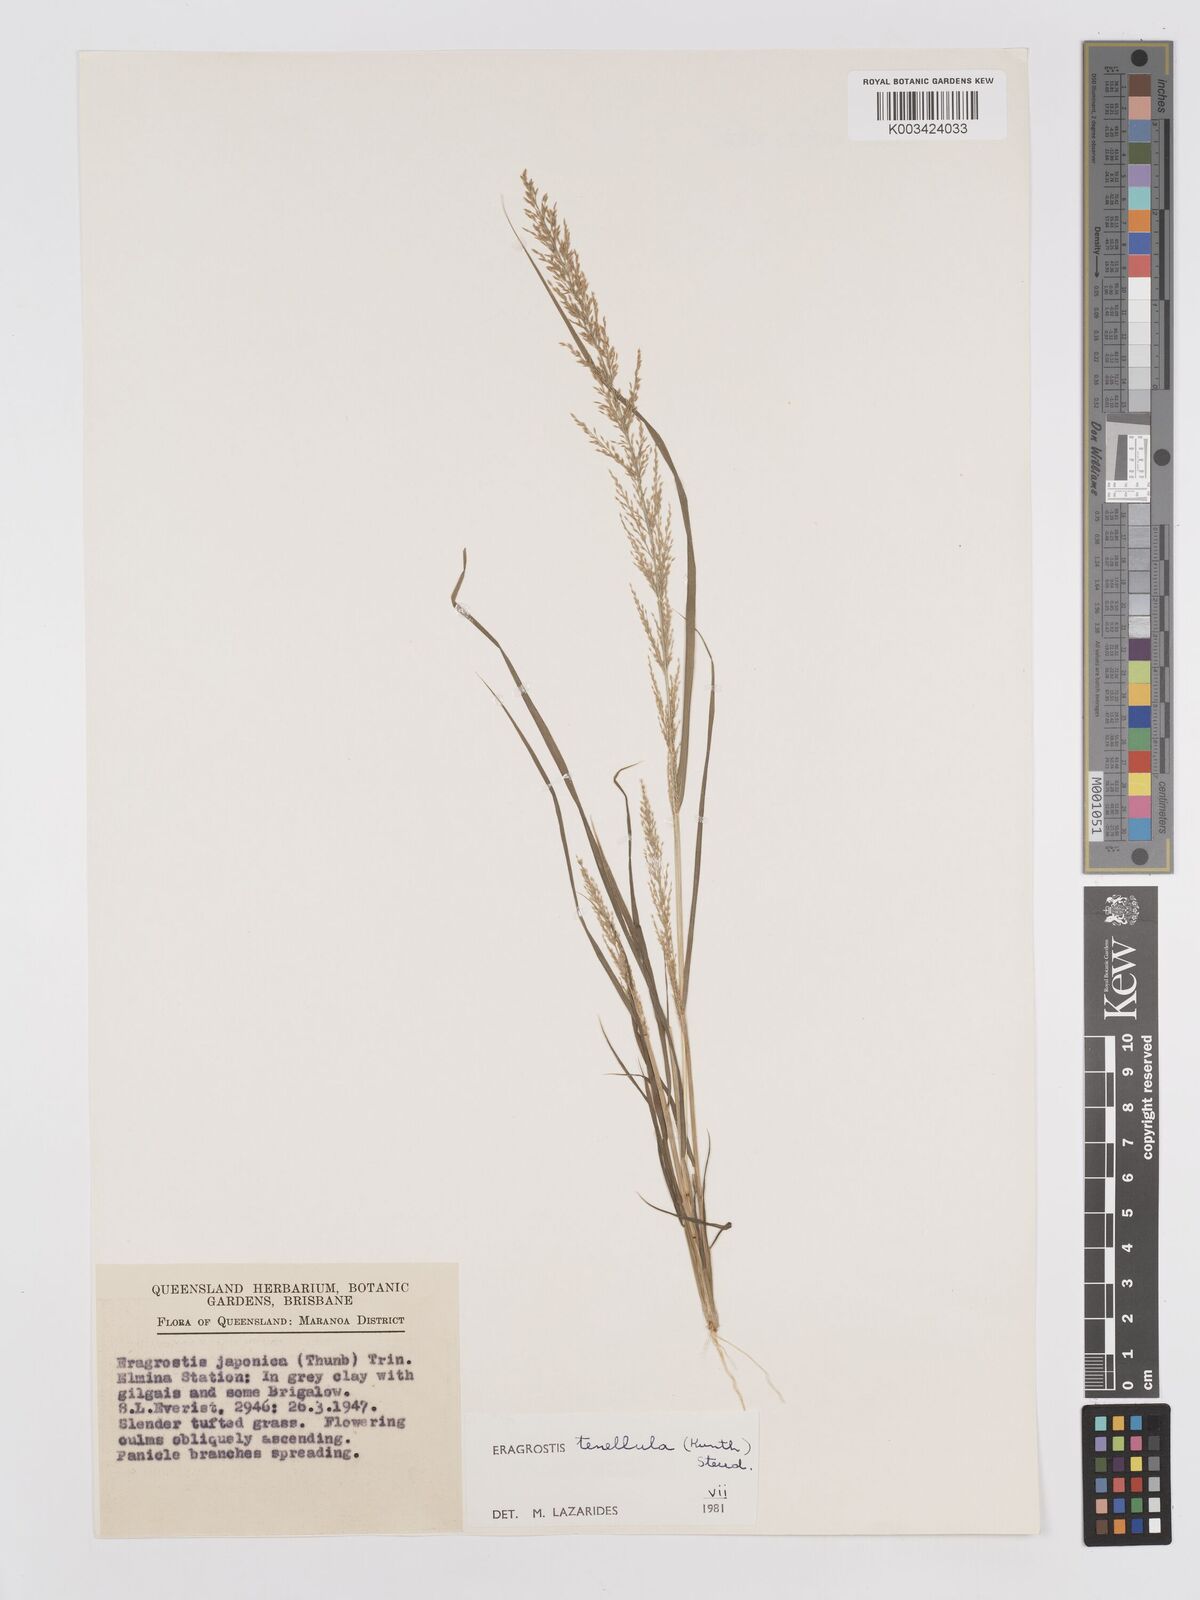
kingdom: Plantae
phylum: Tracheophyta
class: Liliopsida
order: Poales
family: Poaceae
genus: Eragrostis
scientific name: Eragrostis tenellula
